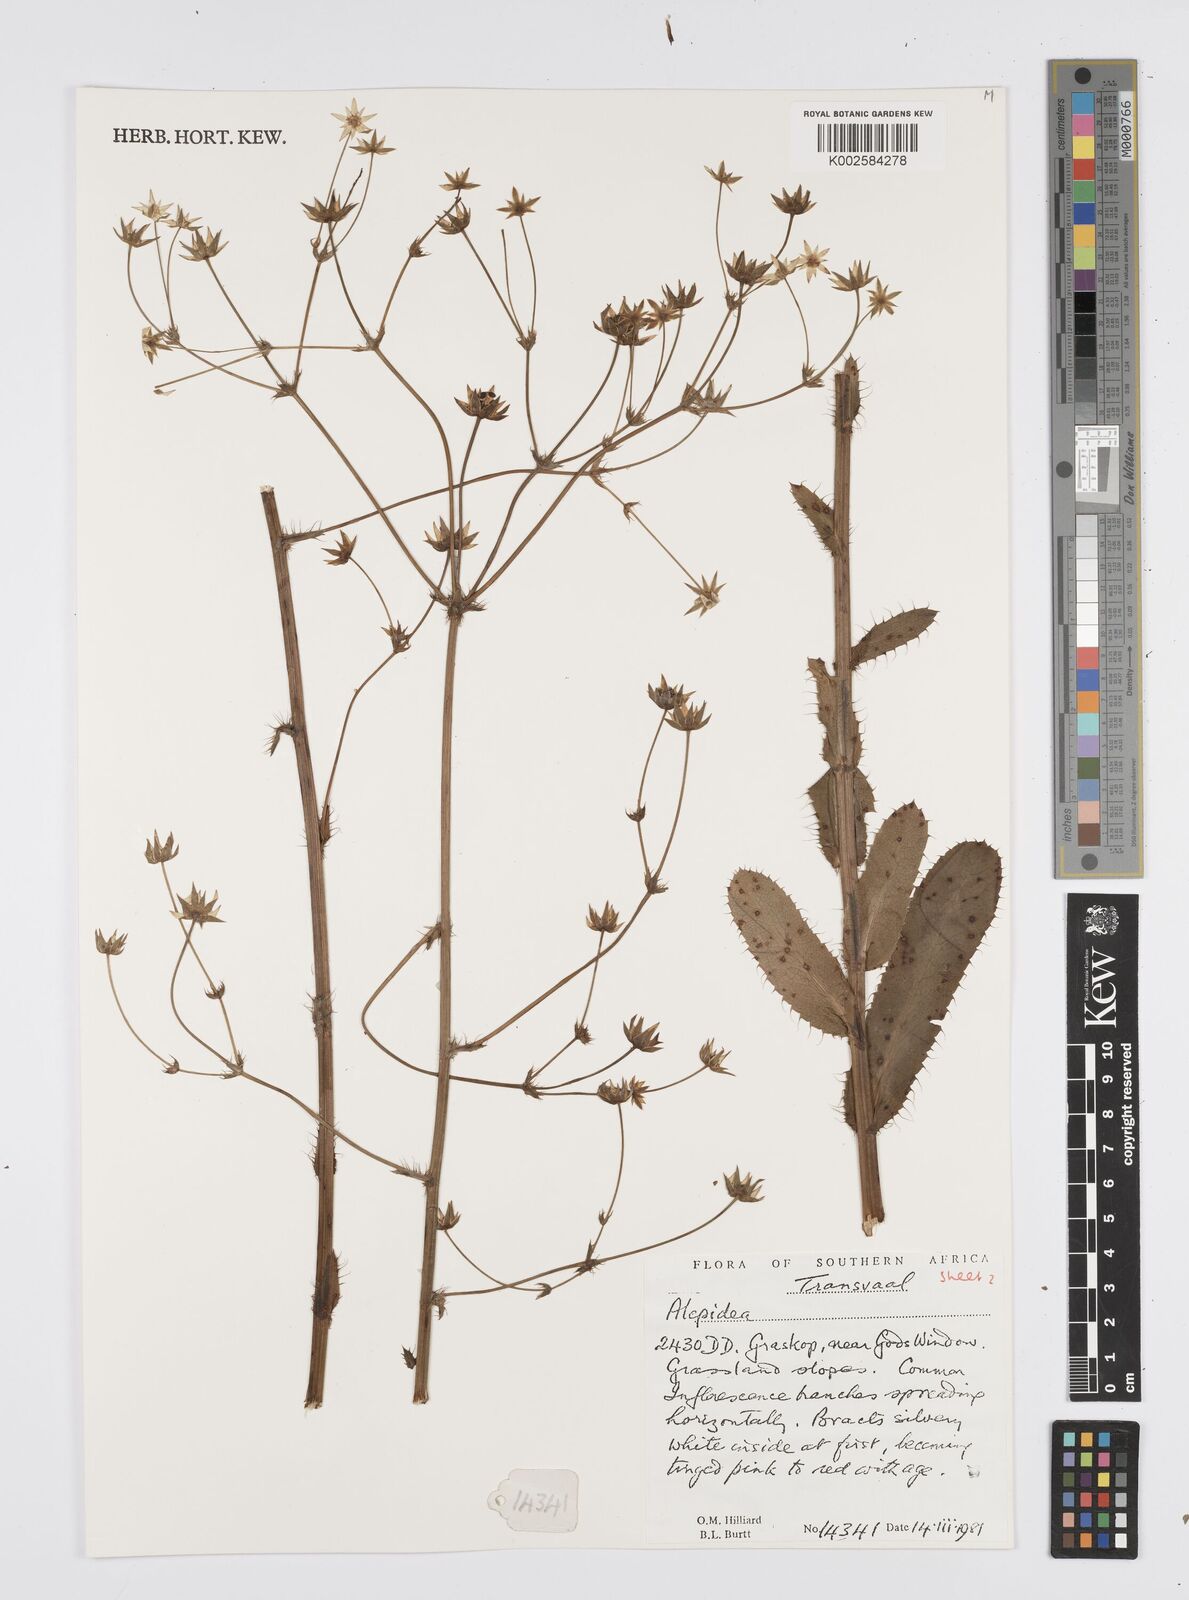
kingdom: Plantae
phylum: Tracheophyta
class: Magnoliopsida
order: Apiales
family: Apiaceae
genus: Alepidea
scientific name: Alepidea
